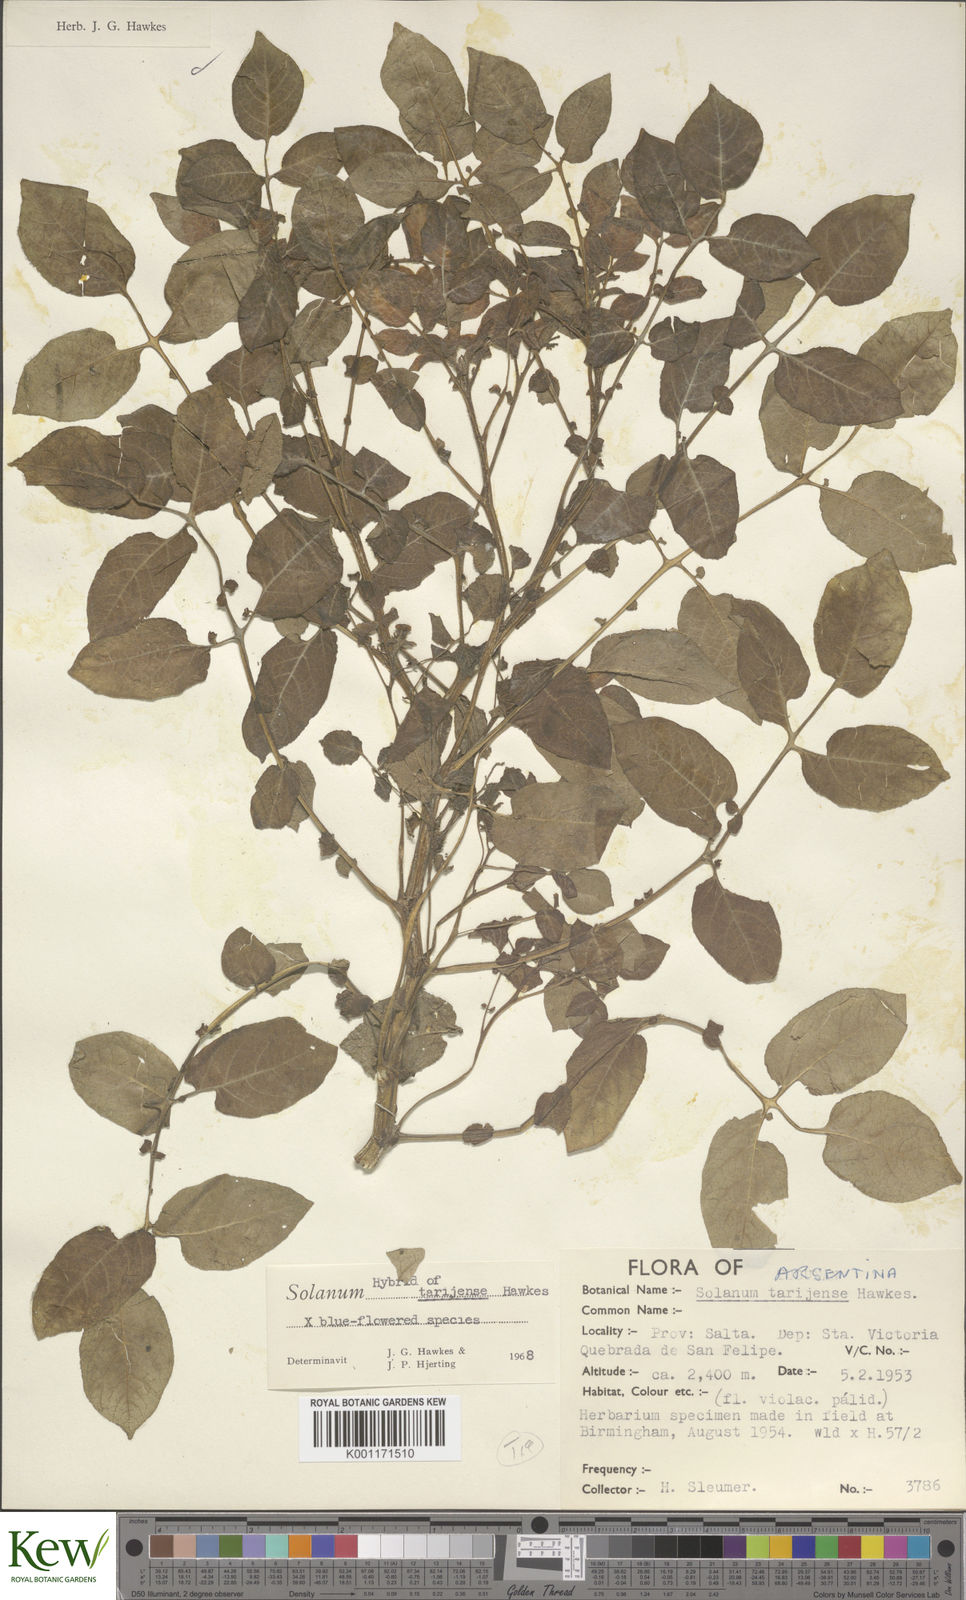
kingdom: Plantae
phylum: Tracheophyta
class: Magnoliopsida
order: Solanales
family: Solanaceae
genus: Solanum
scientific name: Solanum tarijense
